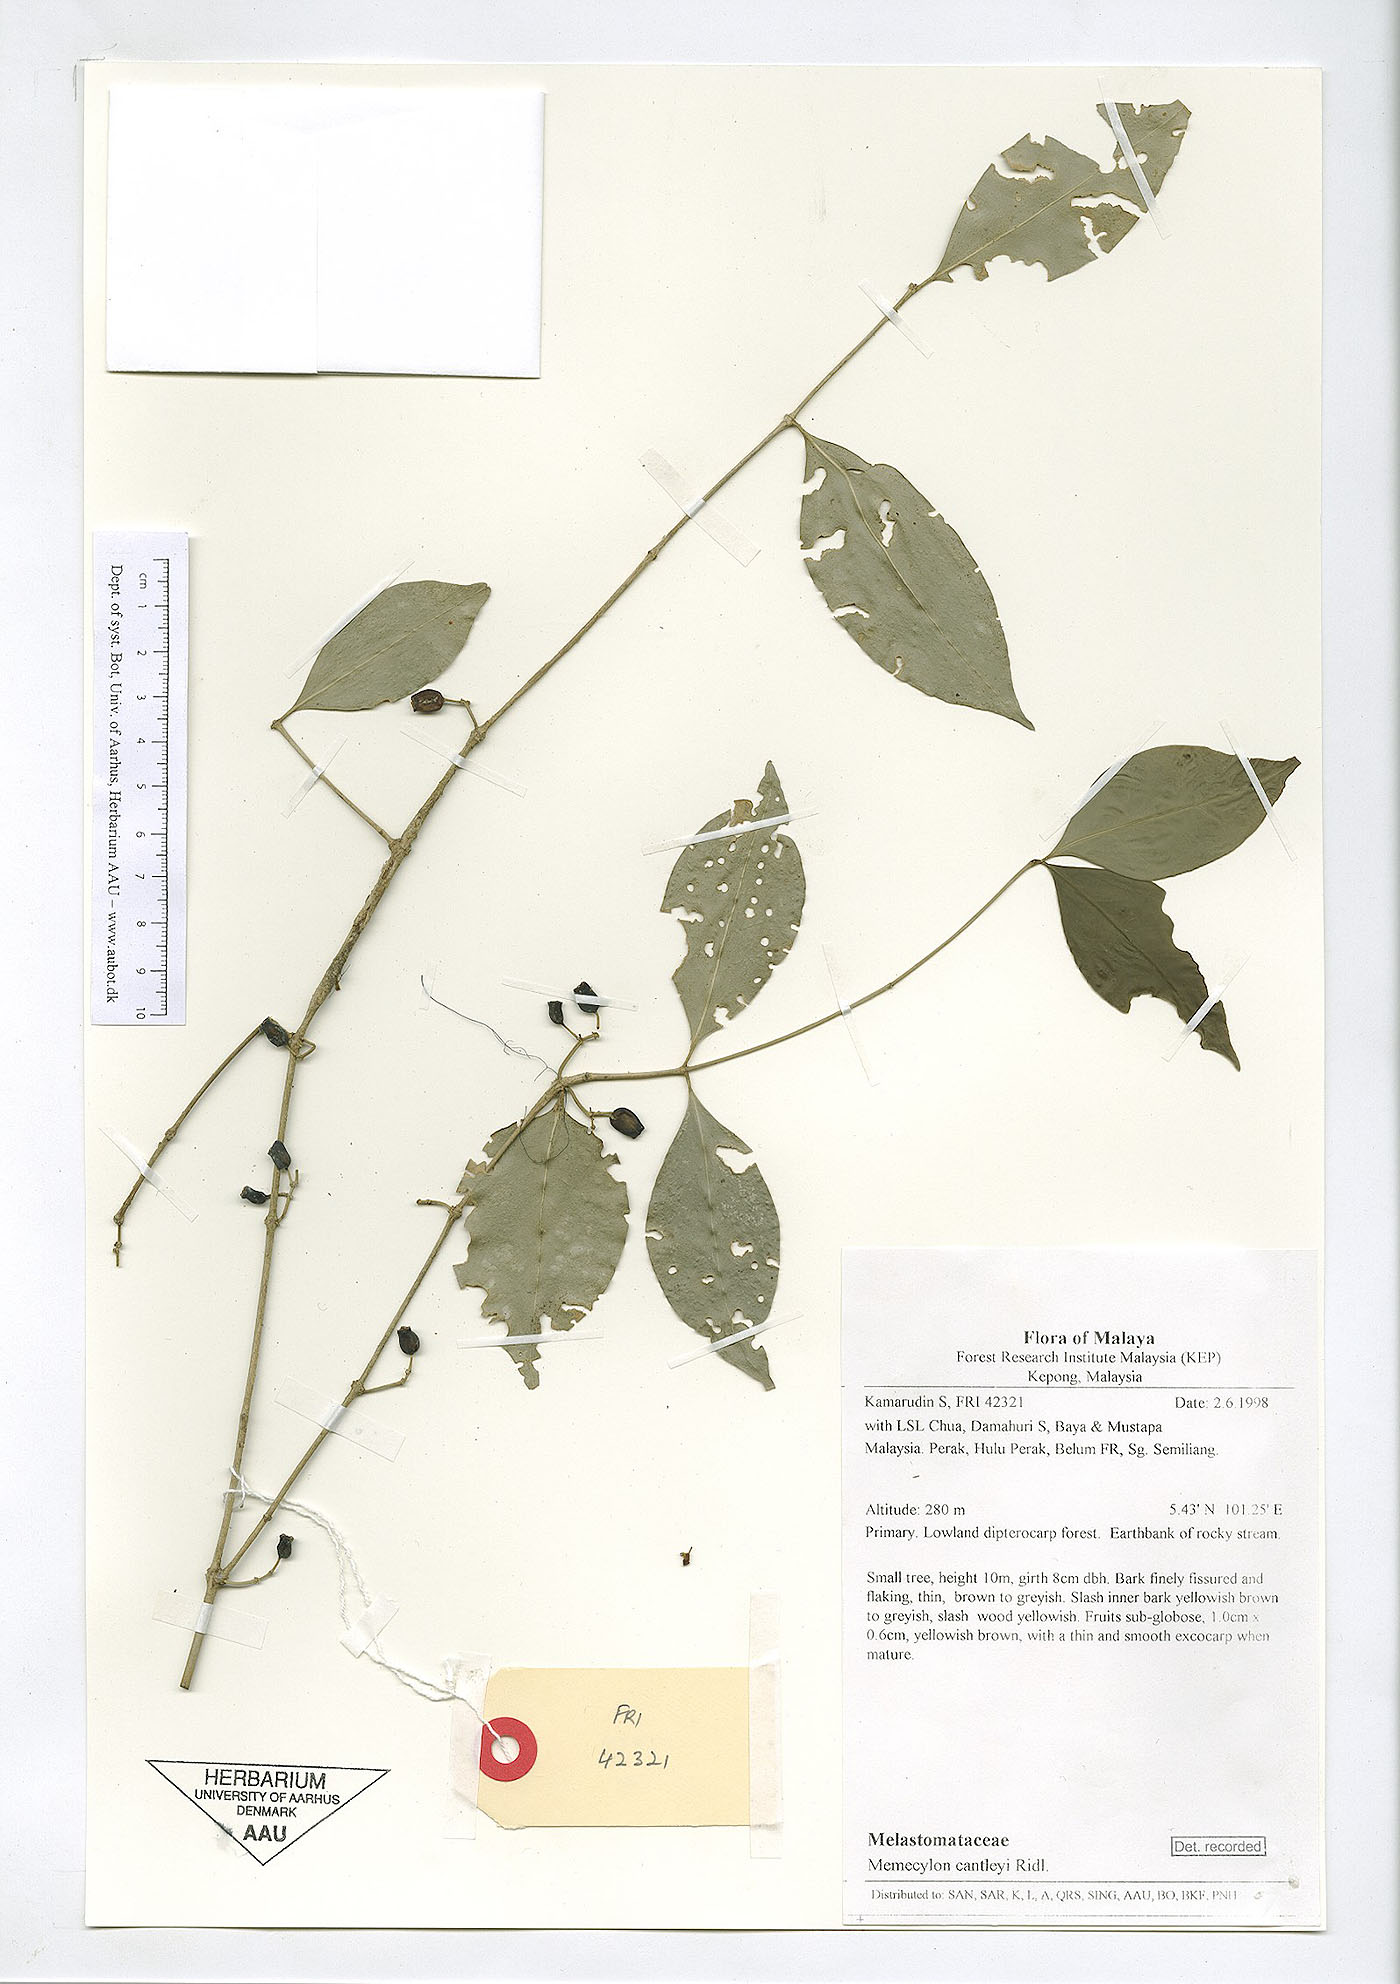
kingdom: Plantae
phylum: Tracheophyta
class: Magnoliopsida
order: Myrtales
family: Melastomataceae
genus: Memecylon
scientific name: Memecylon cantleyi
